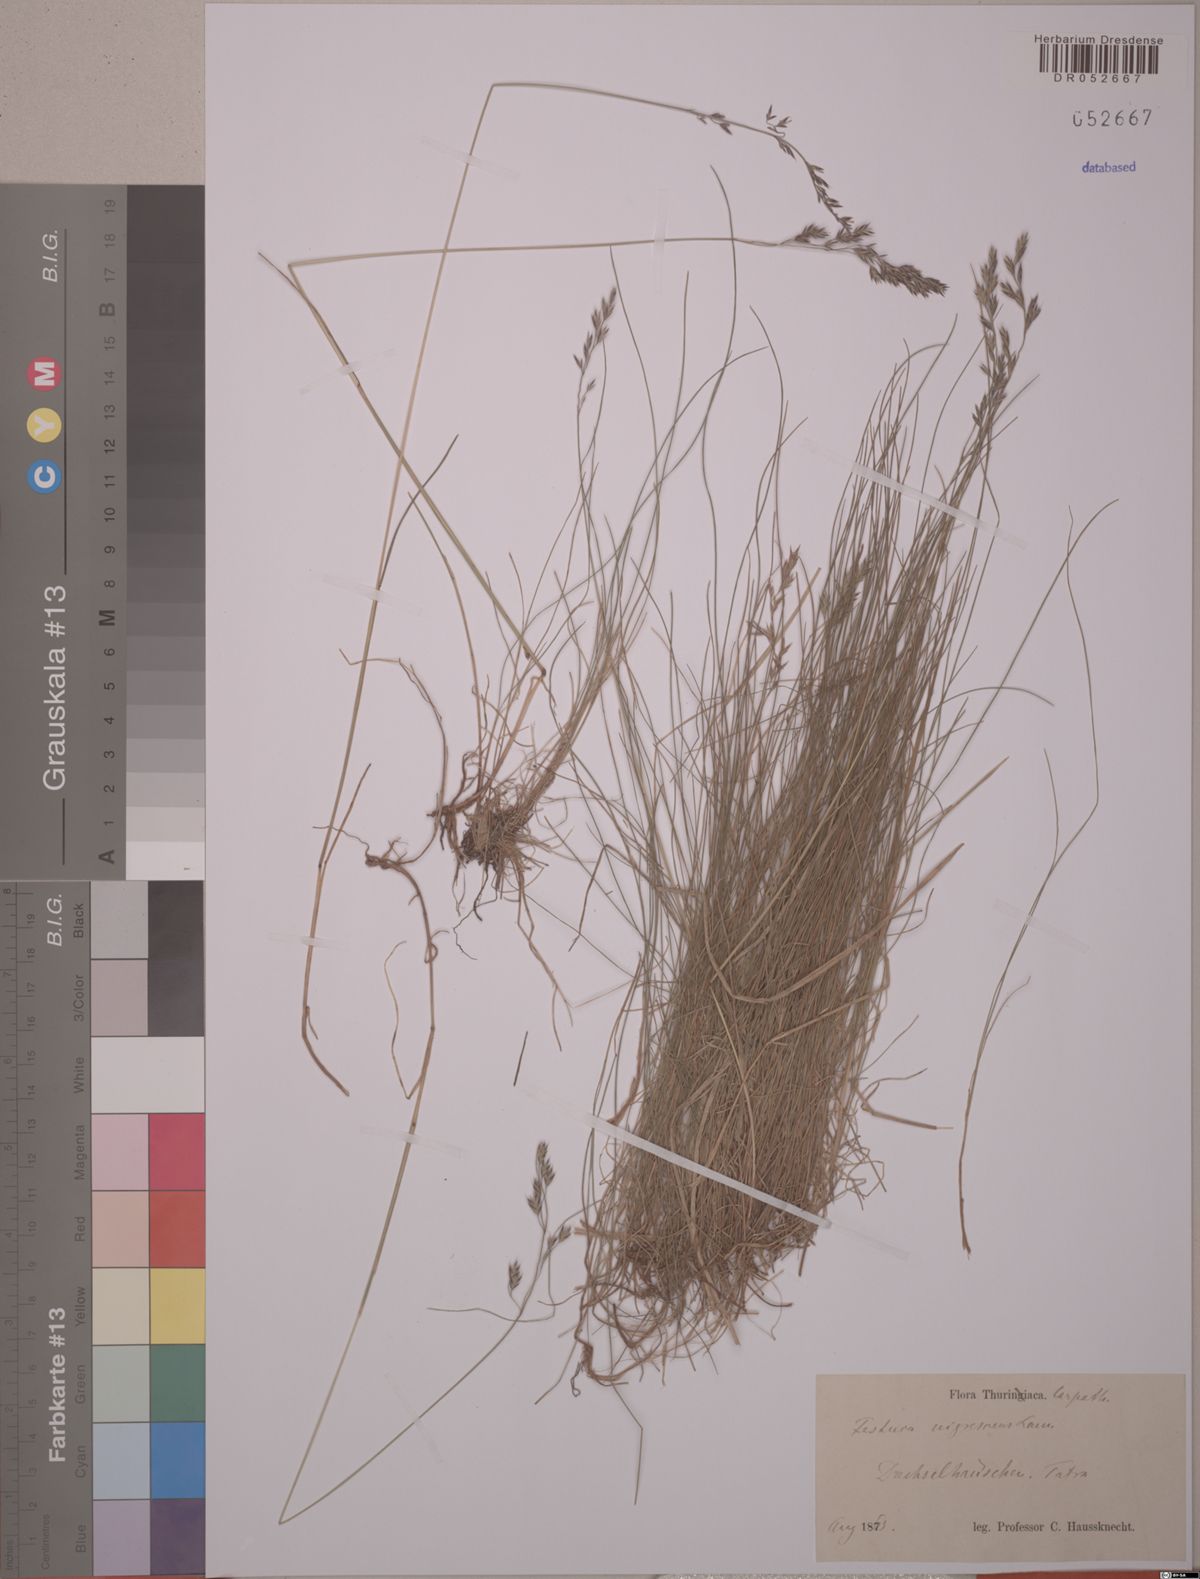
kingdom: Plantae
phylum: Tracheophyta
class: Liliopsida
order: Poales
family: Poaceae
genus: Festuca
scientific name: Festuca nigrescens
